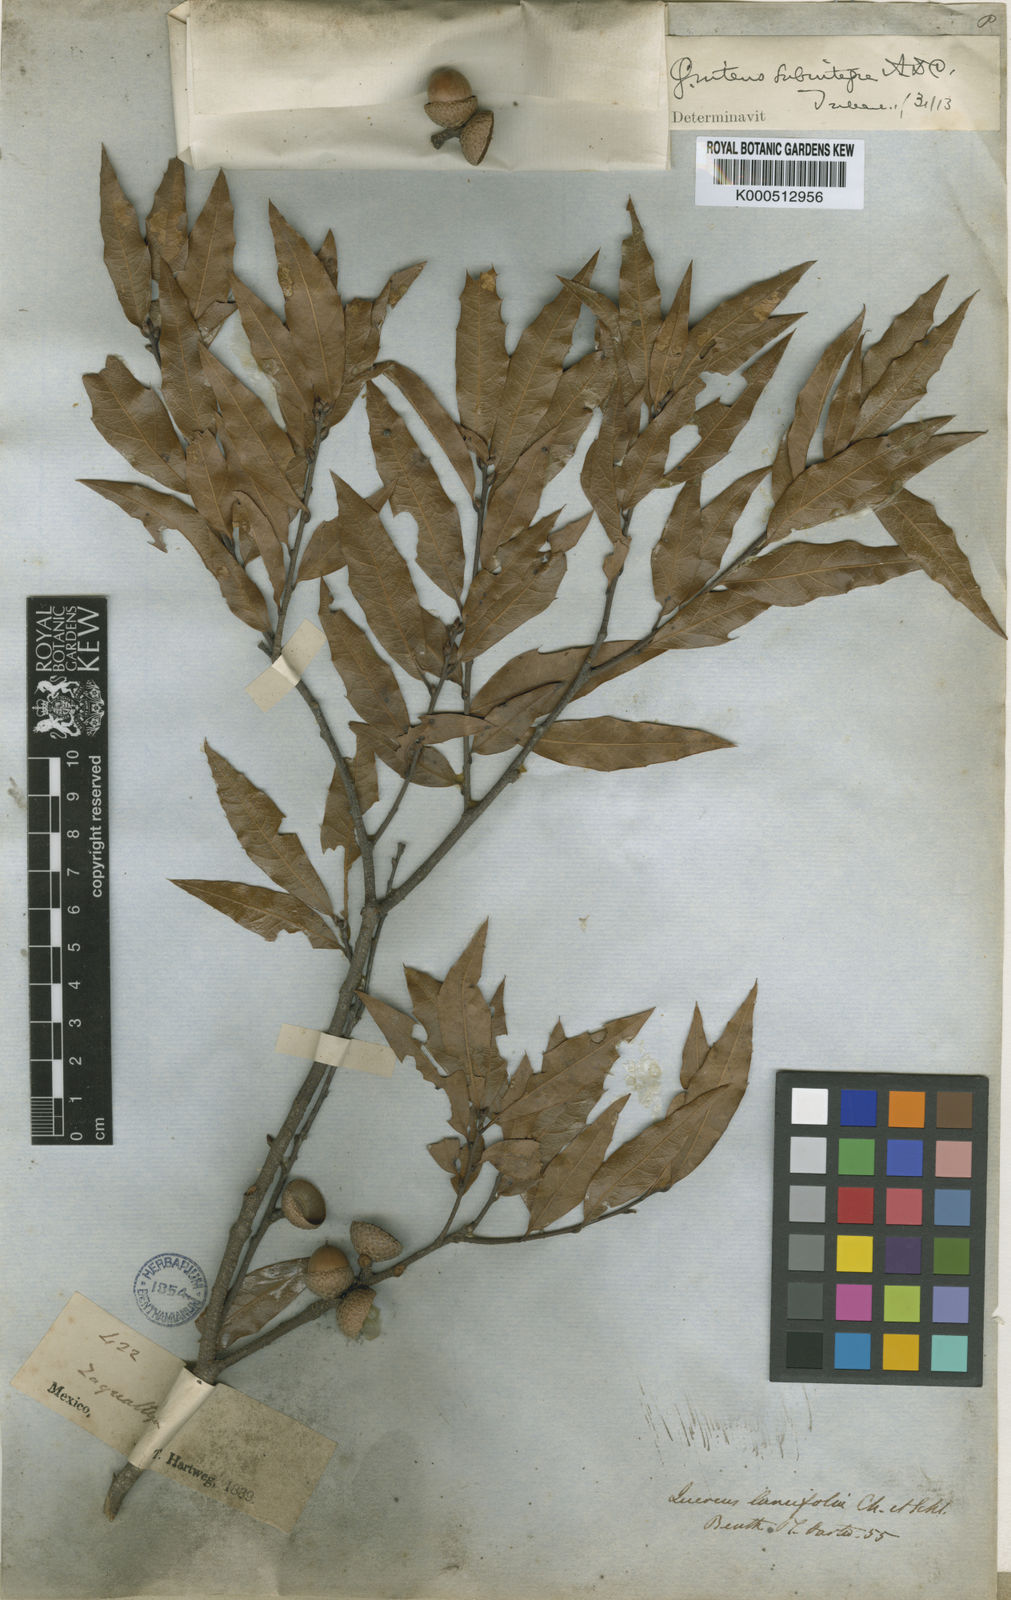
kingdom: Plantae
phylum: Tracheophyta
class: Magnoliopsida
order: Fagales
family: Fagaceae
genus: Quercus
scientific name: Quercus affinis
